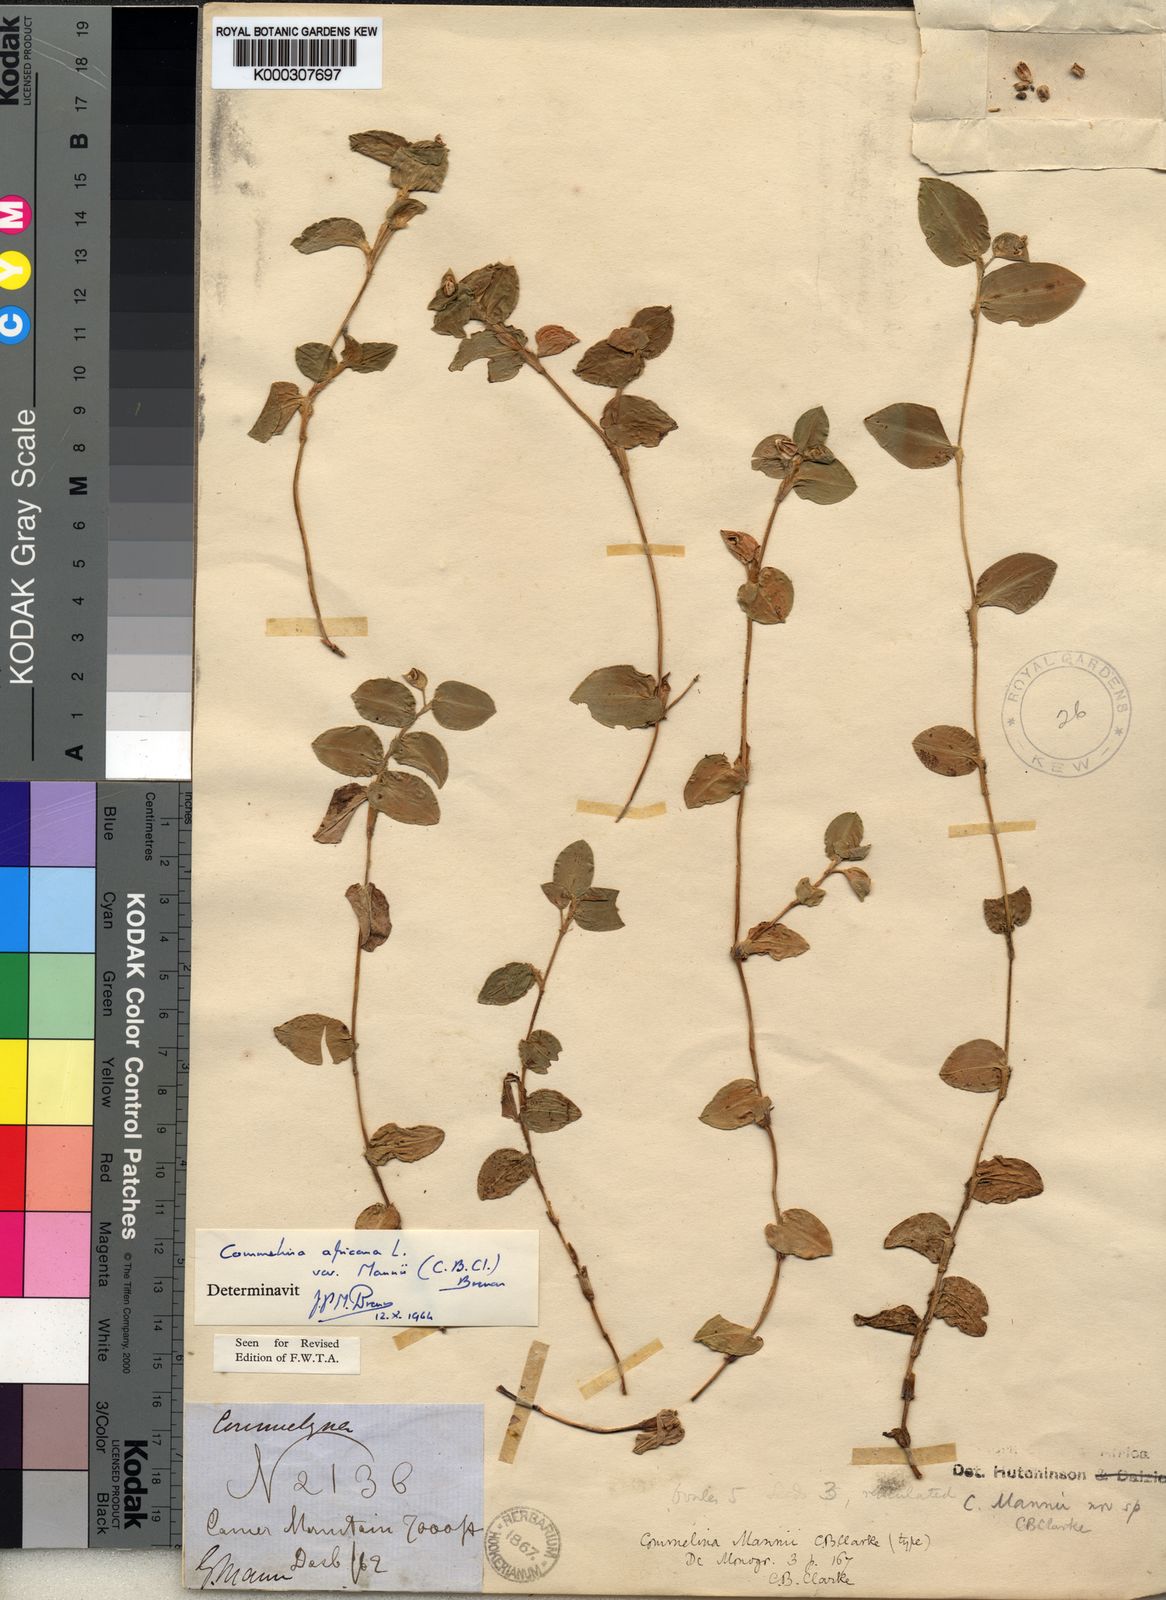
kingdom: Plantae
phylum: Tracheophyta
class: Liliopsida
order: Commelinales
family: Commelinaceae
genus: Commelina
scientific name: Commelina africana
